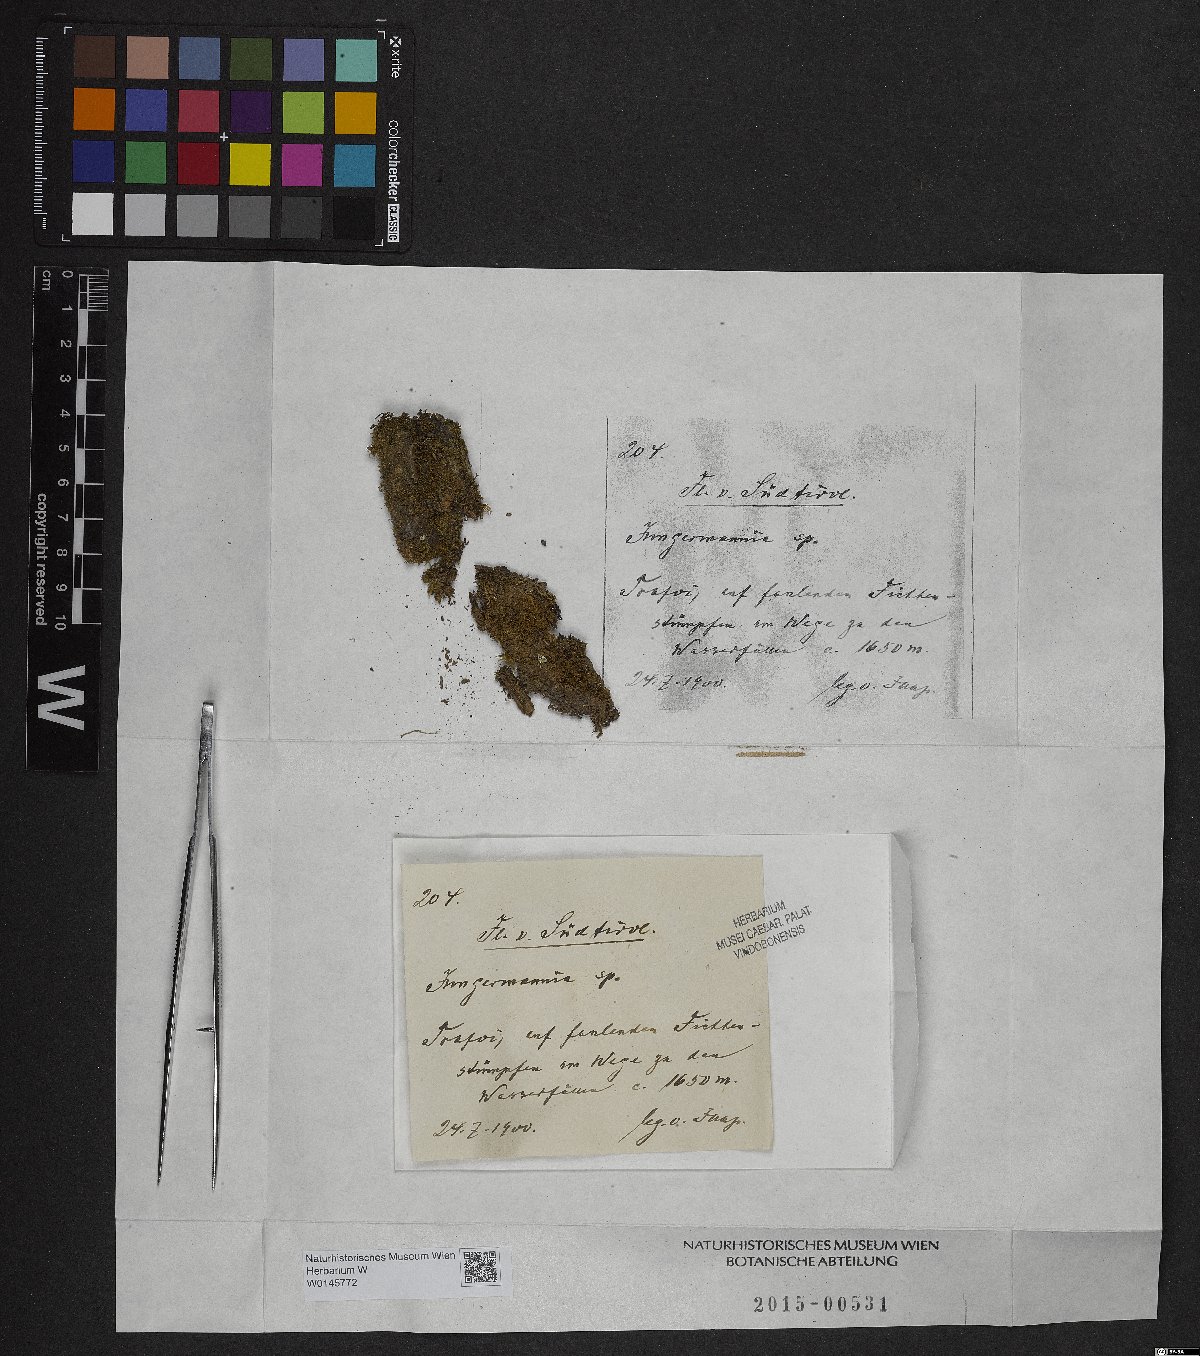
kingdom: Plantae
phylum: Marchantiophyta
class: Jungermanniopsida
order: Jungermanniales
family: Jungermanniaceae
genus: Jungermannia
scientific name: Jungermannia
